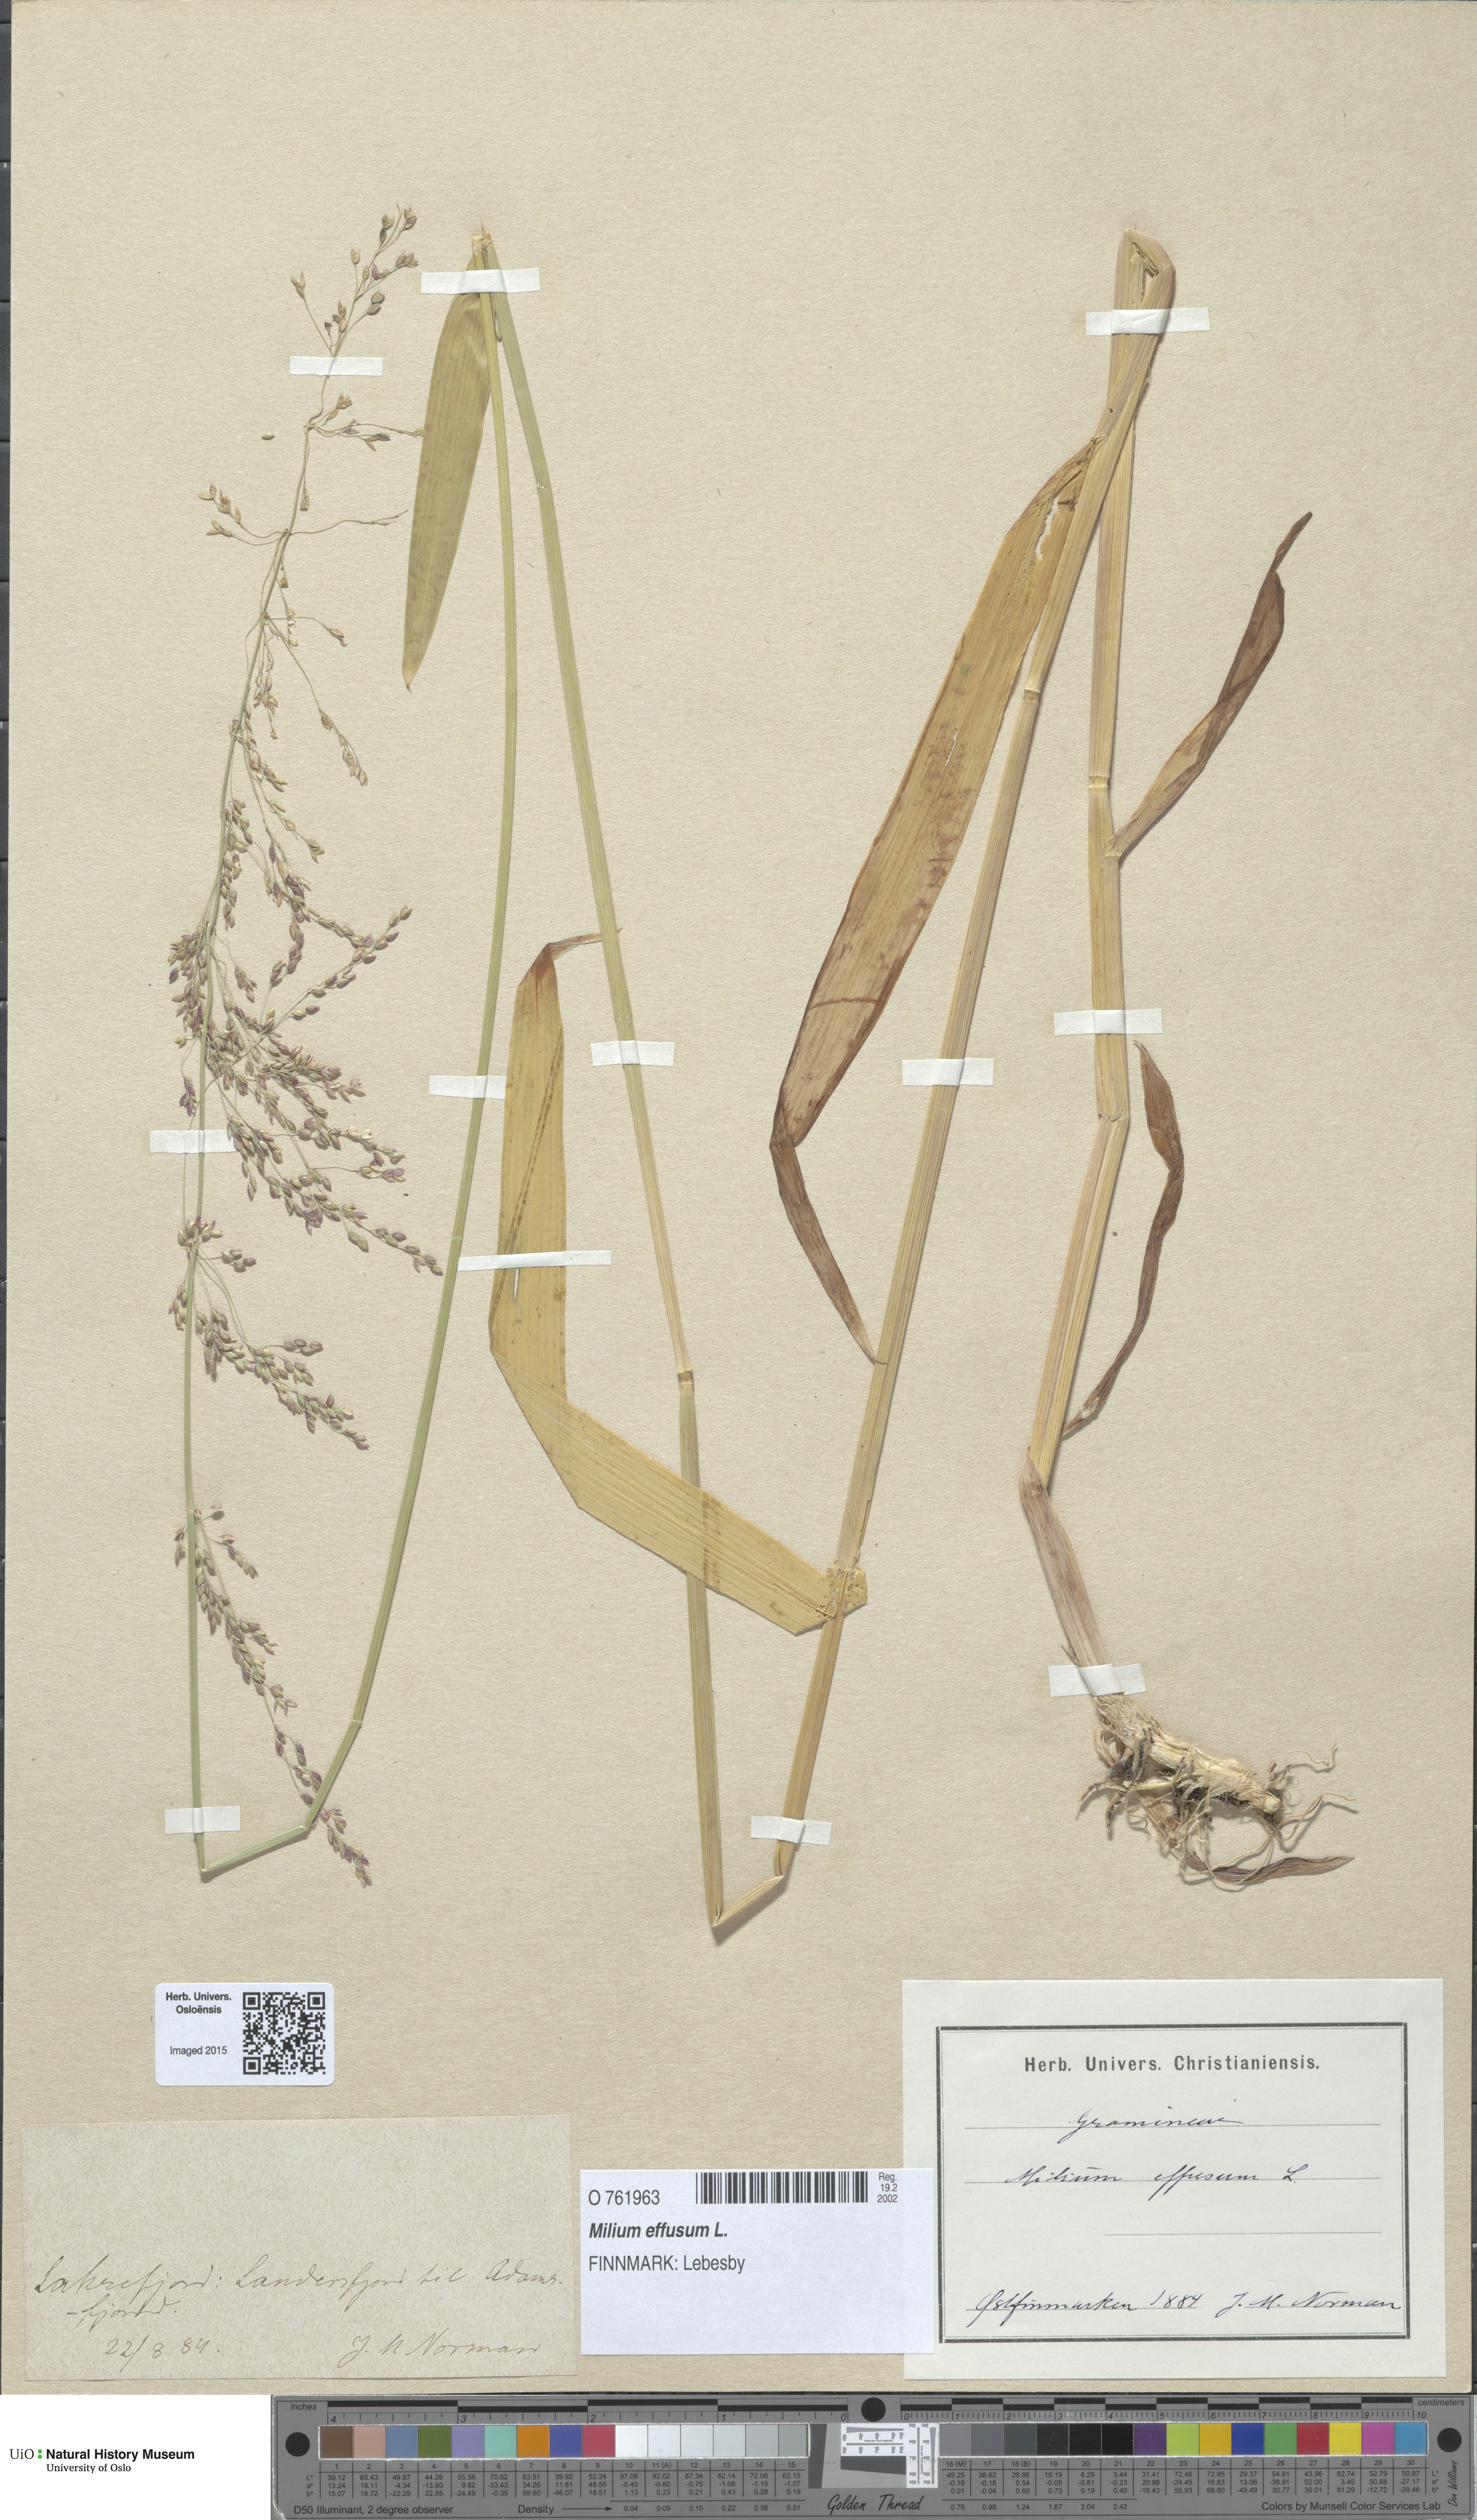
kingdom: Plantae
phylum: Tracheophyta
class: Liliopsida
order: Poales
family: Poaceae
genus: Milium
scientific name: Milium effusum
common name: Wood millet
